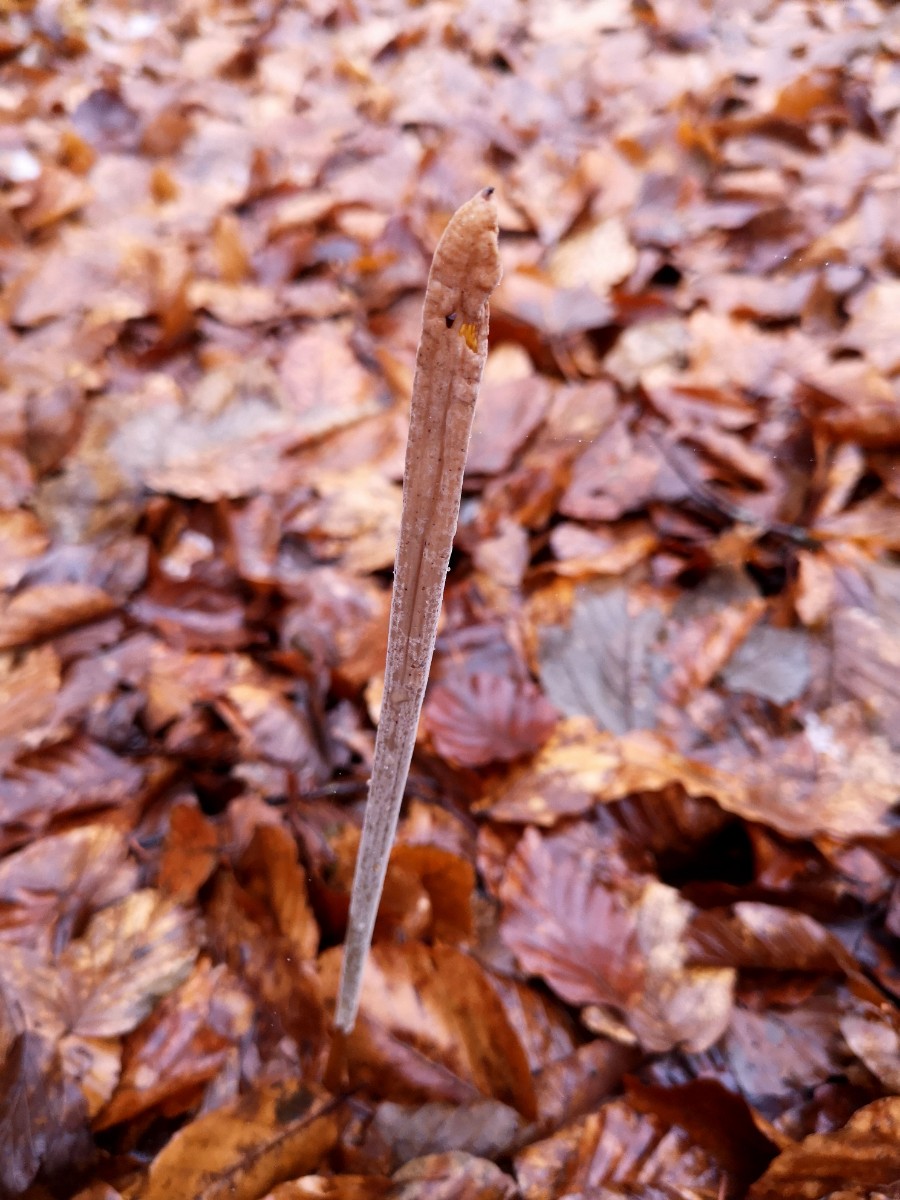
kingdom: Fungi
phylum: Basidiomycota
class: Agaricomycetes
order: Agaricales
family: Typhulaceae
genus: Typhula
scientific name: Typhula fistulosa
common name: pibet rørkølle
